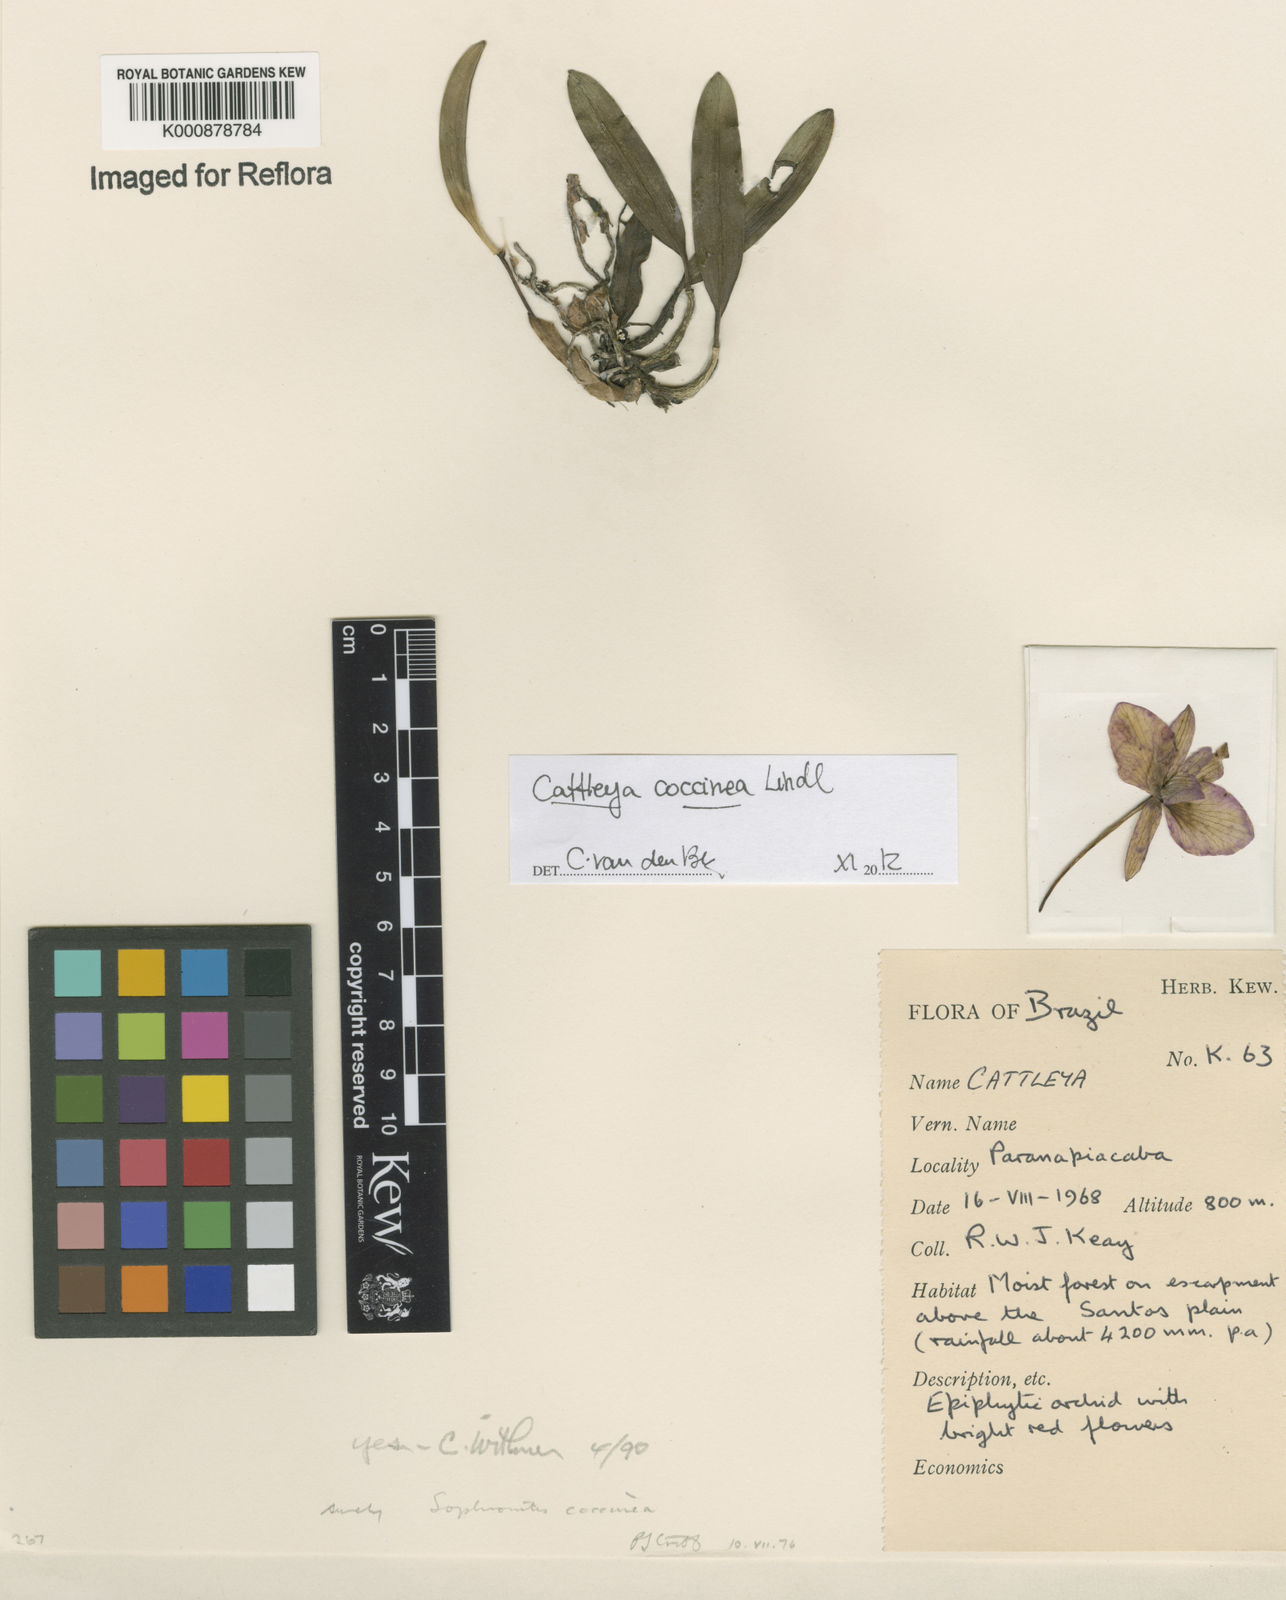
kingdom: Plantae
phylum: Tracheophyta
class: Liliopsida
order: Asparagales
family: Orchidaceae
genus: Cattleya
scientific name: Cattleya coccinea
